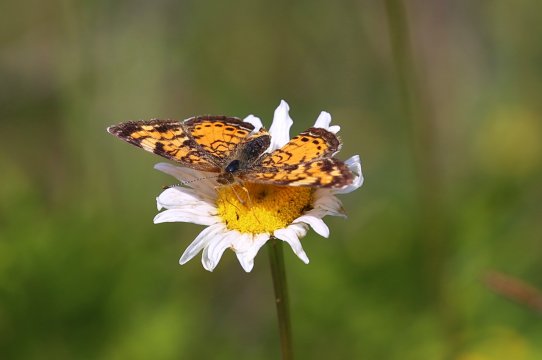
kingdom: Animalia
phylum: Arthropoda
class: Insecta
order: Lepidoptera
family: Nymphalidae
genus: Phyciodes
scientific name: Phyciodes tharos
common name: Northern Crescent
